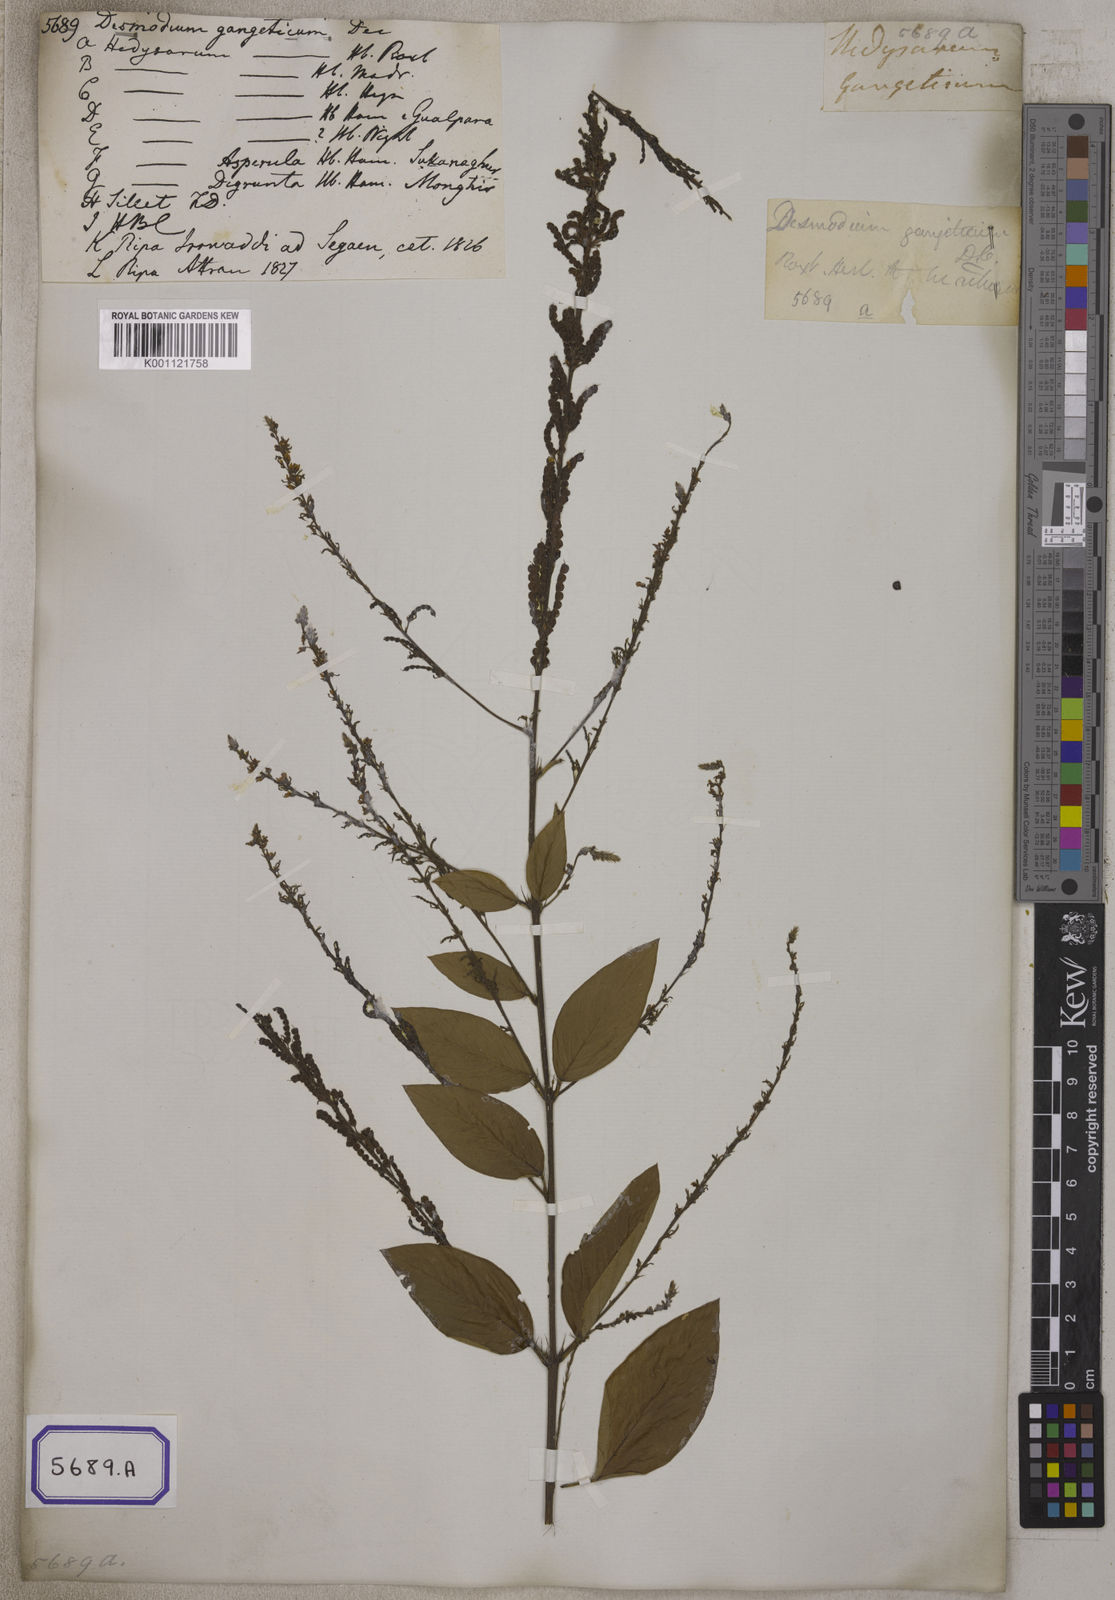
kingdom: Plantae
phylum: Tracheophyta
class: Magnoliopsida
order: Fabales
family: Fabaceae
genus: Pleurolobus
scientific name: Pleurolobus gangeticus
